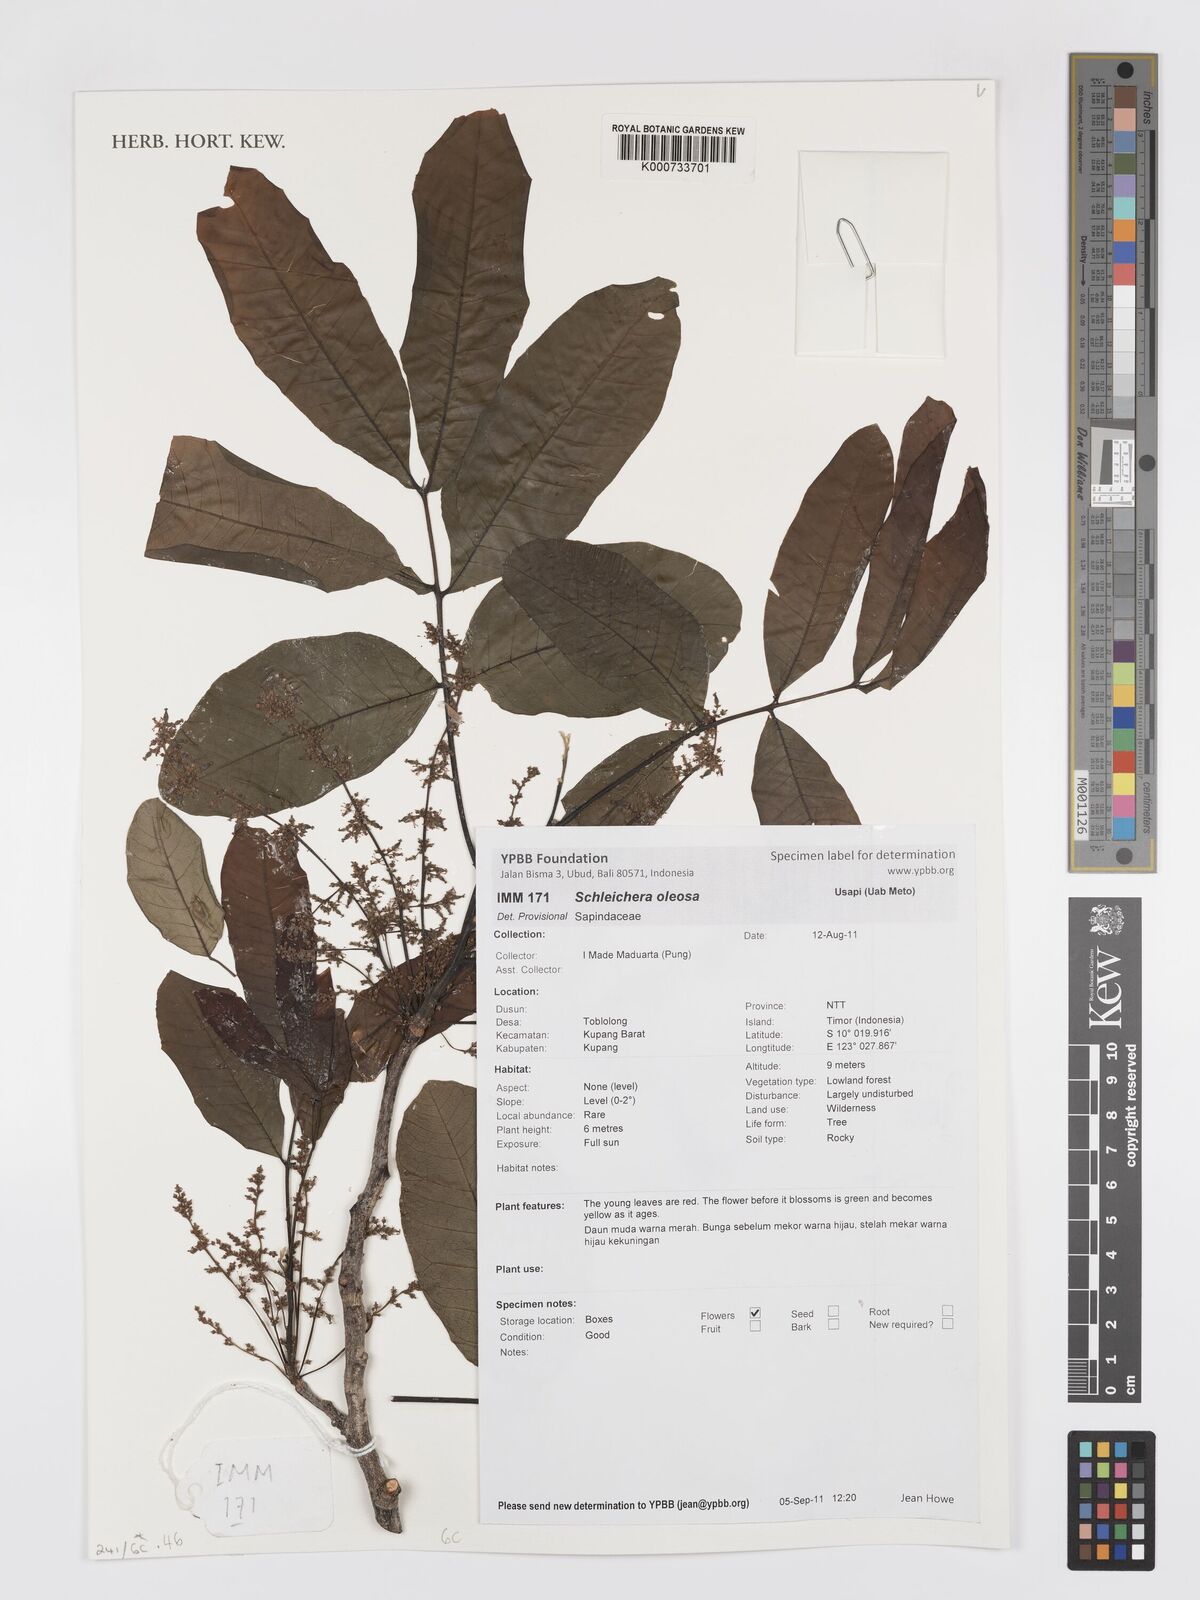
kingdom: Plantae
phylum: Tracheophyta
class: Magnoliopsida
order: Sapindales
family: Sapindaceae
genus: Schleichera
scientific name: Schleichera
